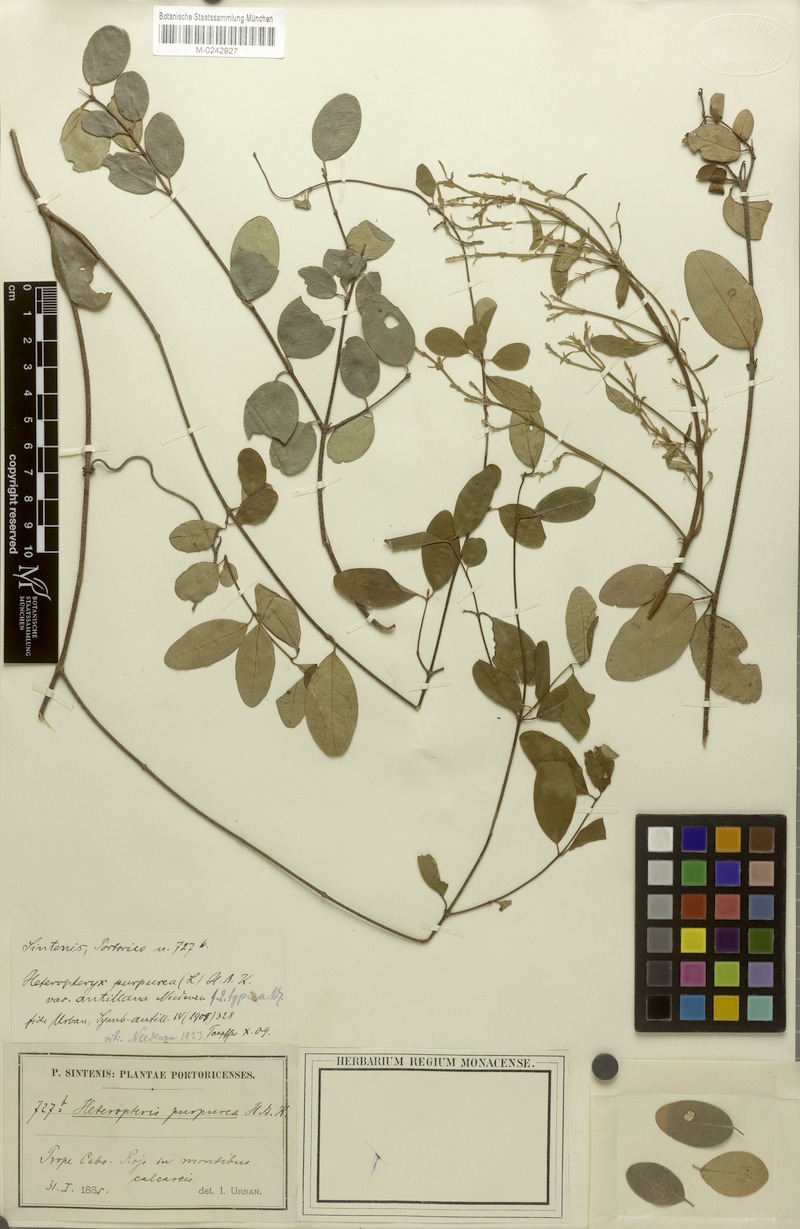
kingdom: Plantae
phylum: Tracheophyta
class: Magnoliopsida
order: Malpighiales
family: Malpighiaceae
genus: Heteropterys
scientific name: Heteropterys purpurea
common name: Bull withe
